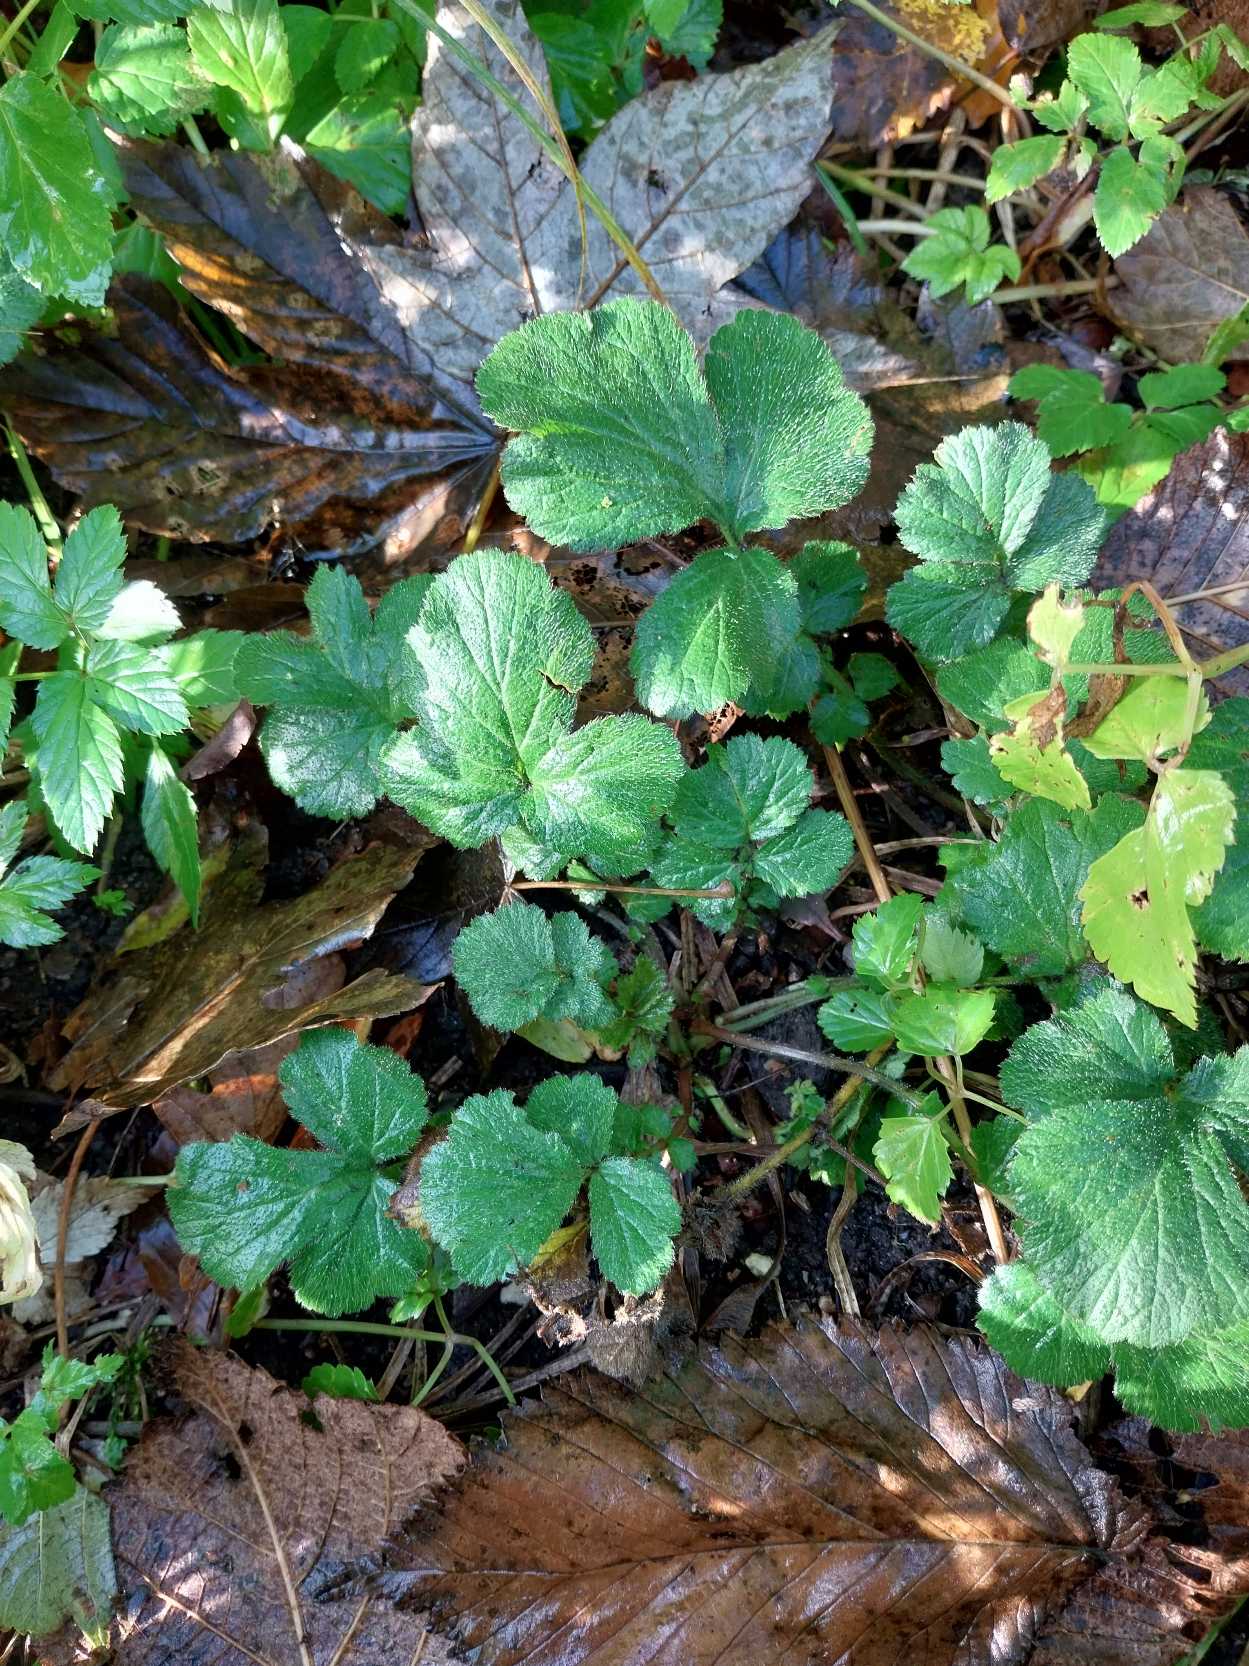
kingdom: Plantae
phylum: Tracheophyta
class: Magnoliopsida
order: Rosales
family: Rosaceae
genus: Geum
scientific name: Geum urbanum
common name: Feber-nellikerod
